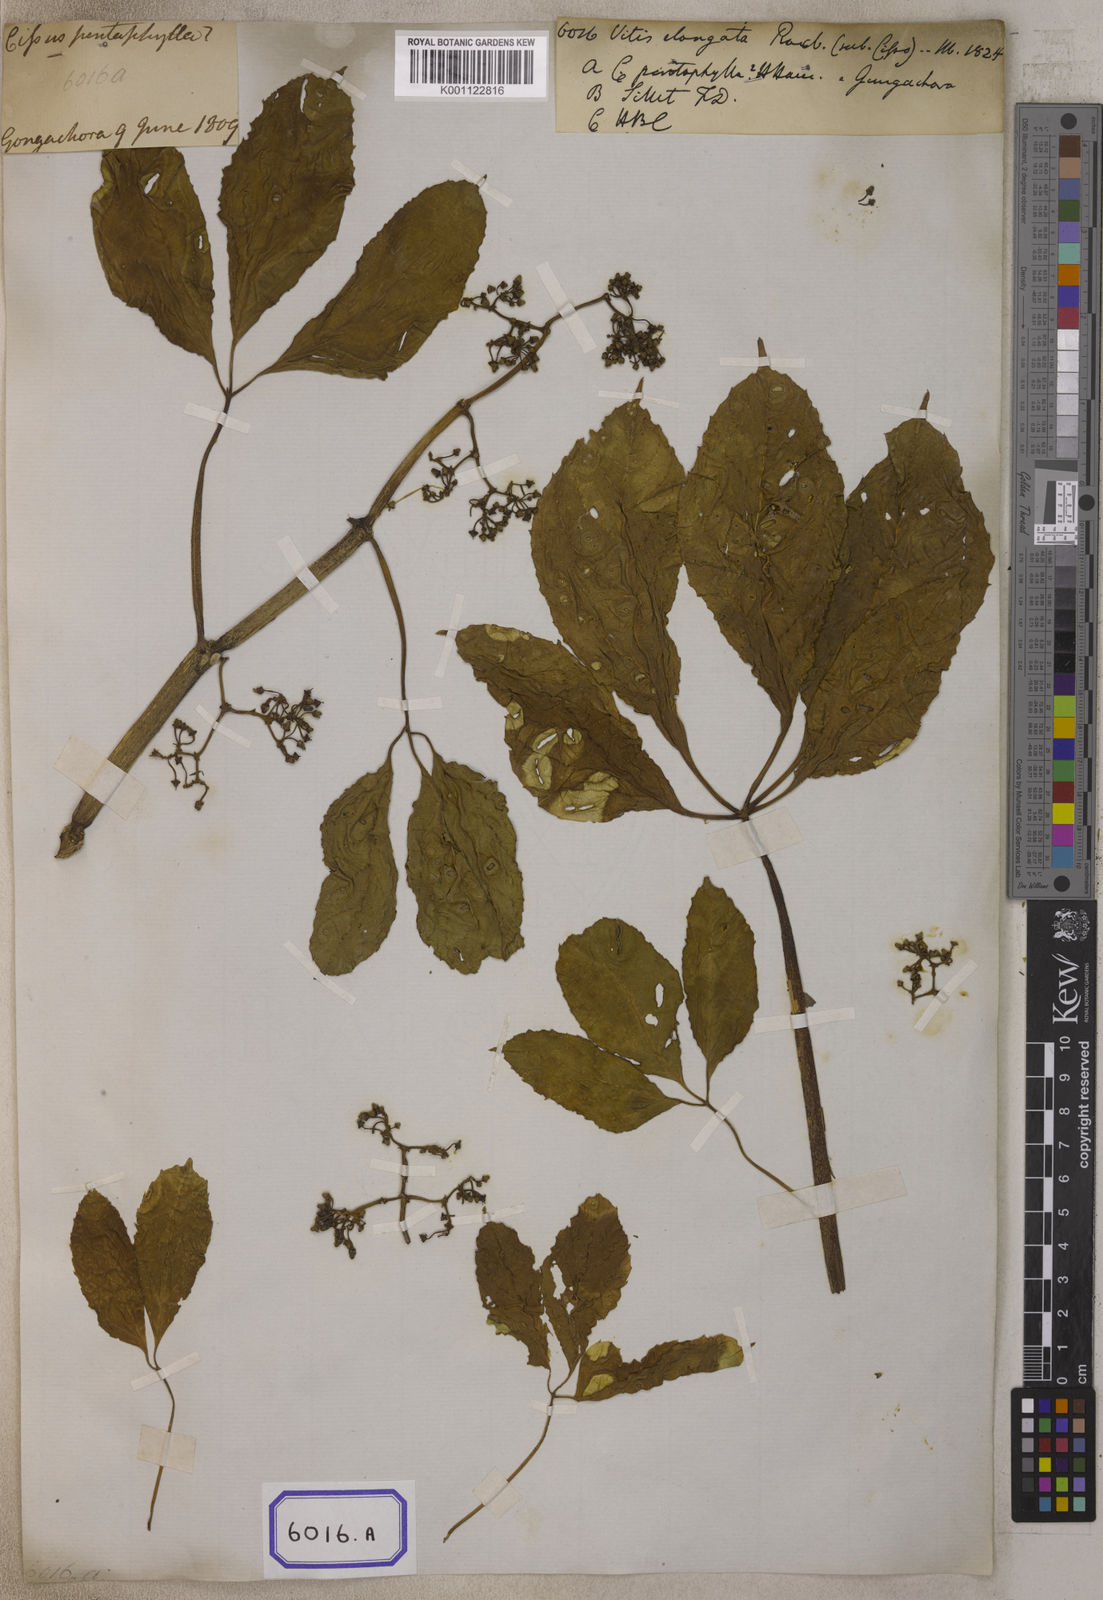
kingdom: Plantae
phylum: Tracheophyta
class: Magnoliopsida
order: Vitales
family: Vitaceae
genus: Cissus
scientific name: Cissus elongata
